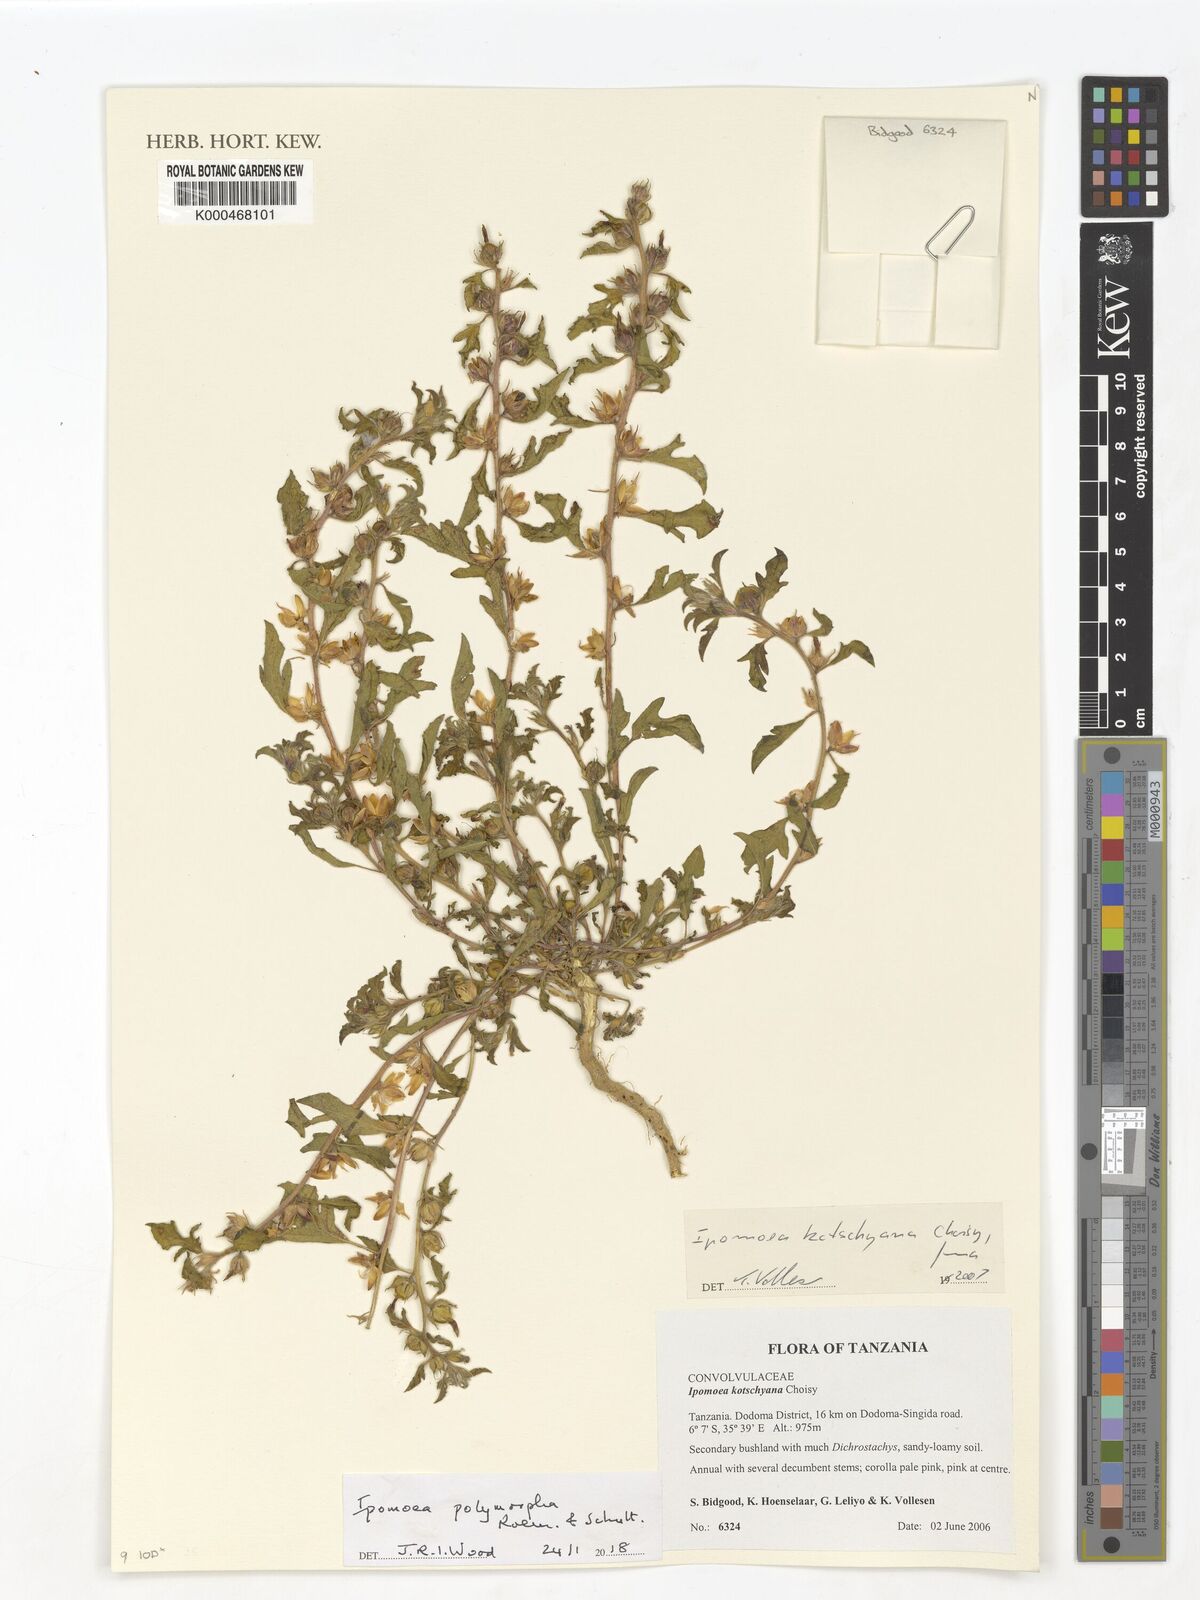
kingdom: Plantae
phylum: Tracheophyta
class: Magnoliopsida
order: Solanales
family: Convolvulaceae
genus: Ipomoea
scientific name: Ipomoea kotschyana
